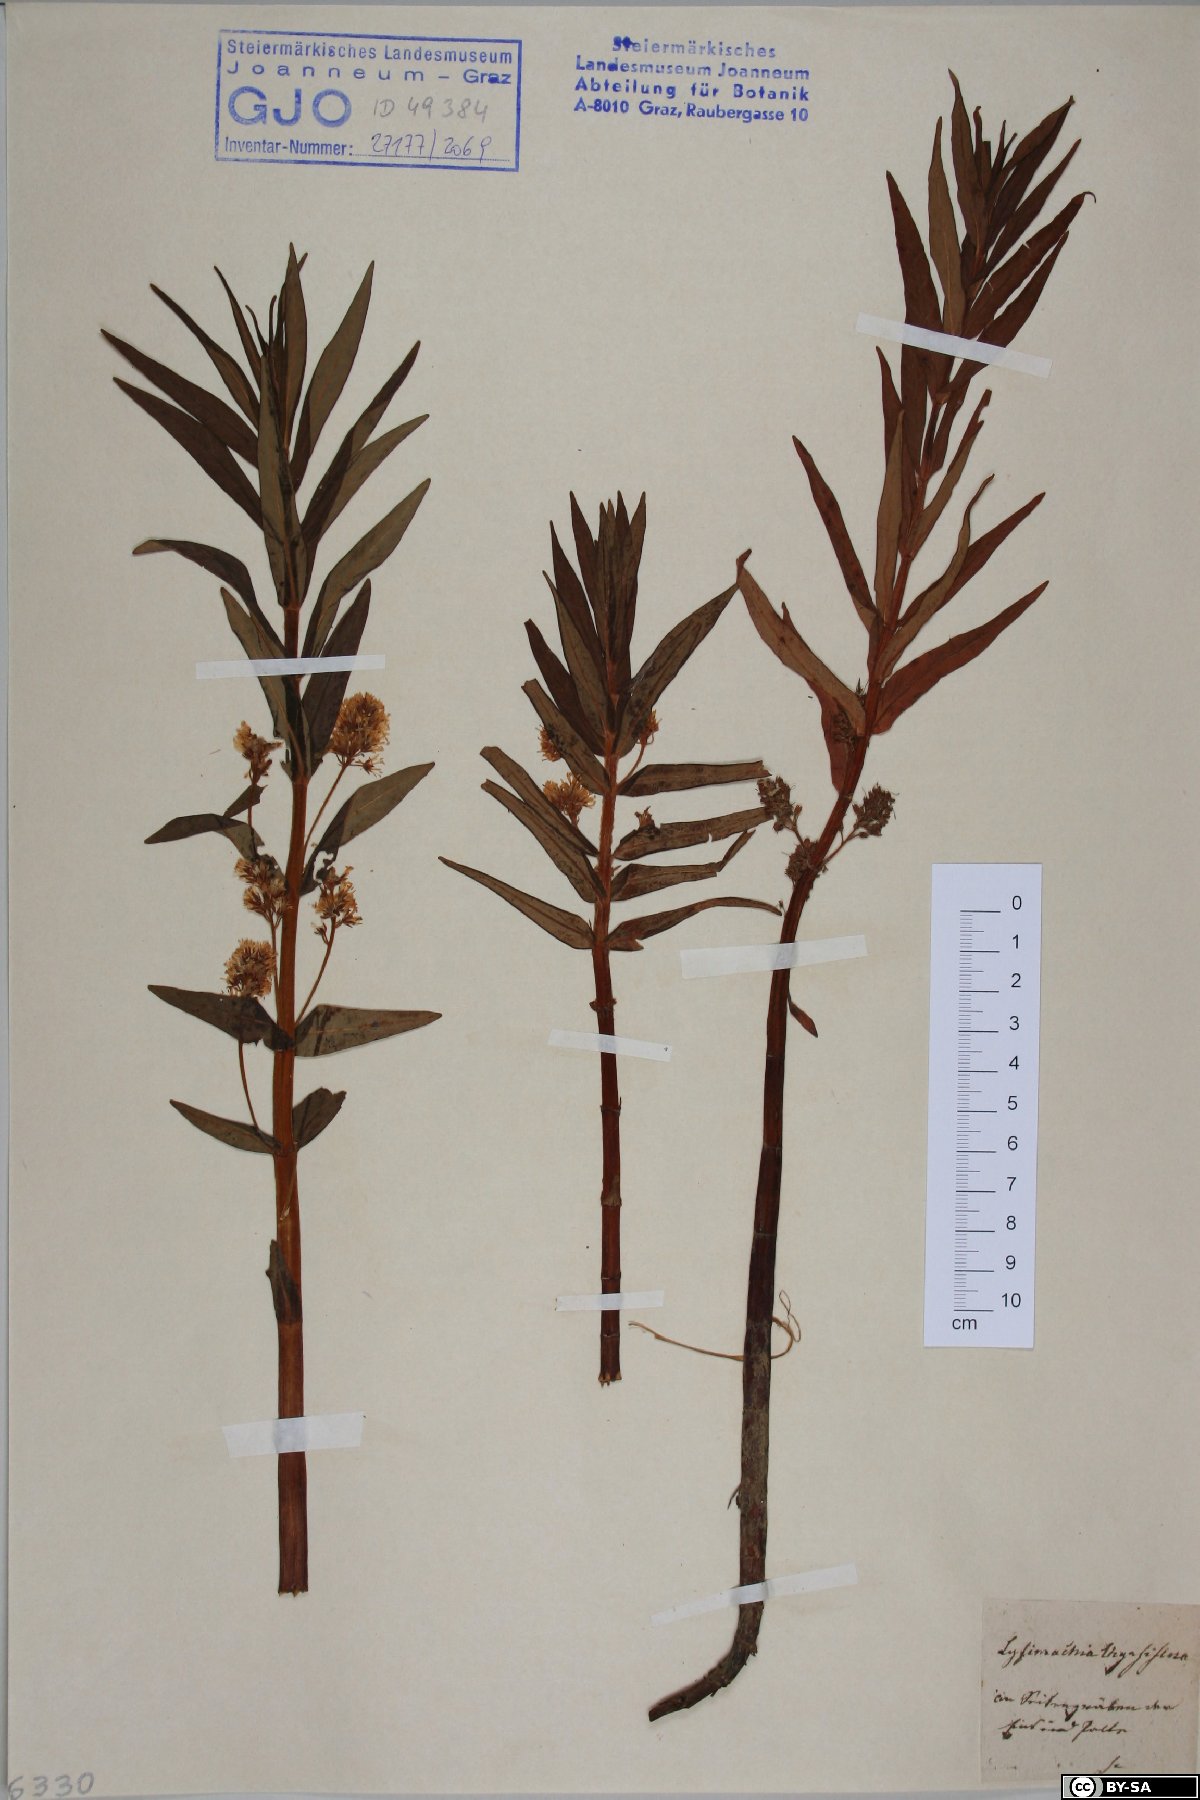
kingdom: Plantae
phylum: Tracheophyta
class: Magnoliopsida
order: Ericales
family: Primulaceae
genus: Lysimachia
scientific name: Lysimachia thyrsiflora
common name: Tufted loosestrife
